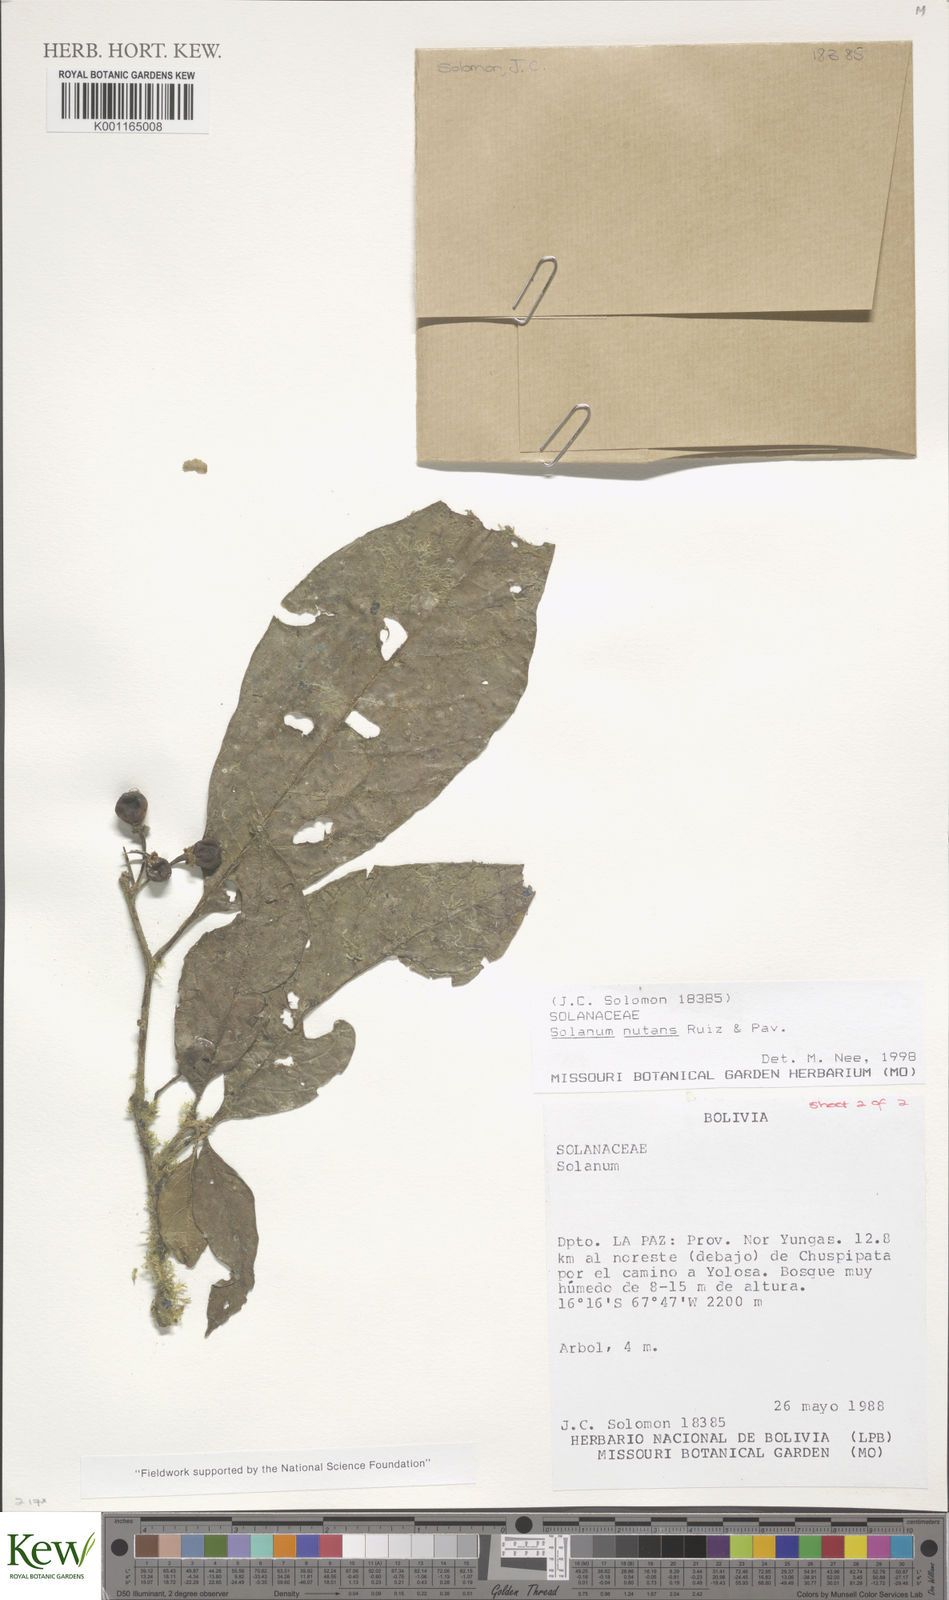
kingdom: Plantae
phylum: Tracheophyta
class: Magnoliopsida
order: Solanales
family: Solanaceae
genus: Solanum
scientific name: Solanum nutans
